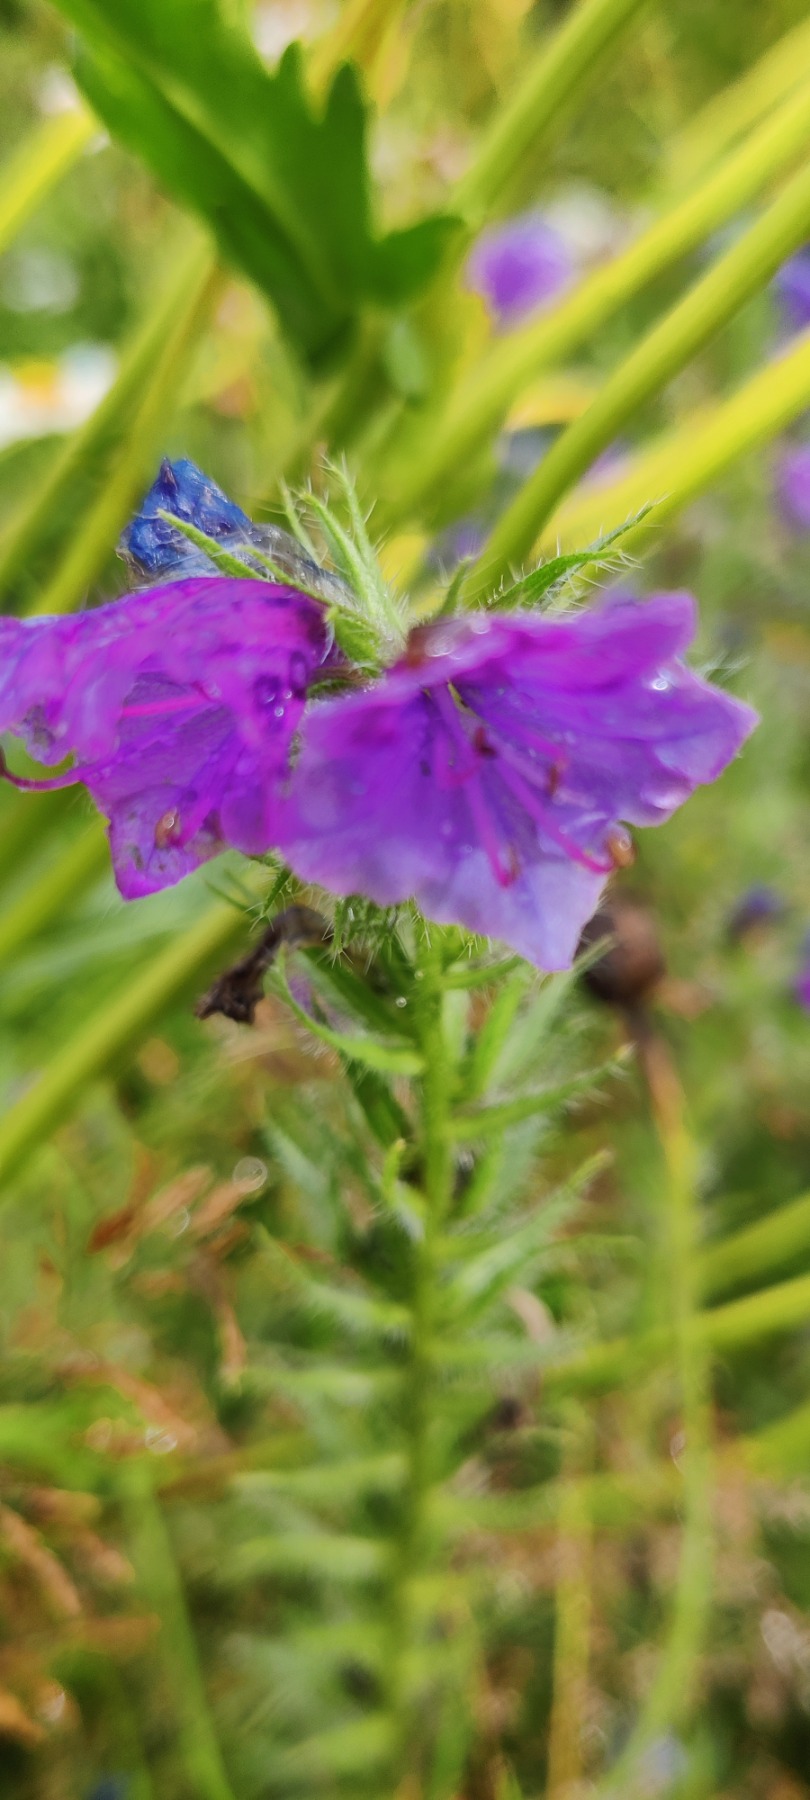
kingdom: Plantae
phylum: Tracheophyta
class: Magnoliopsida
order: Boraginales
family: Boraginaceae
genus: Echium
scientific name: Echium plantagineum
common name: Vejbred-slangehoved
